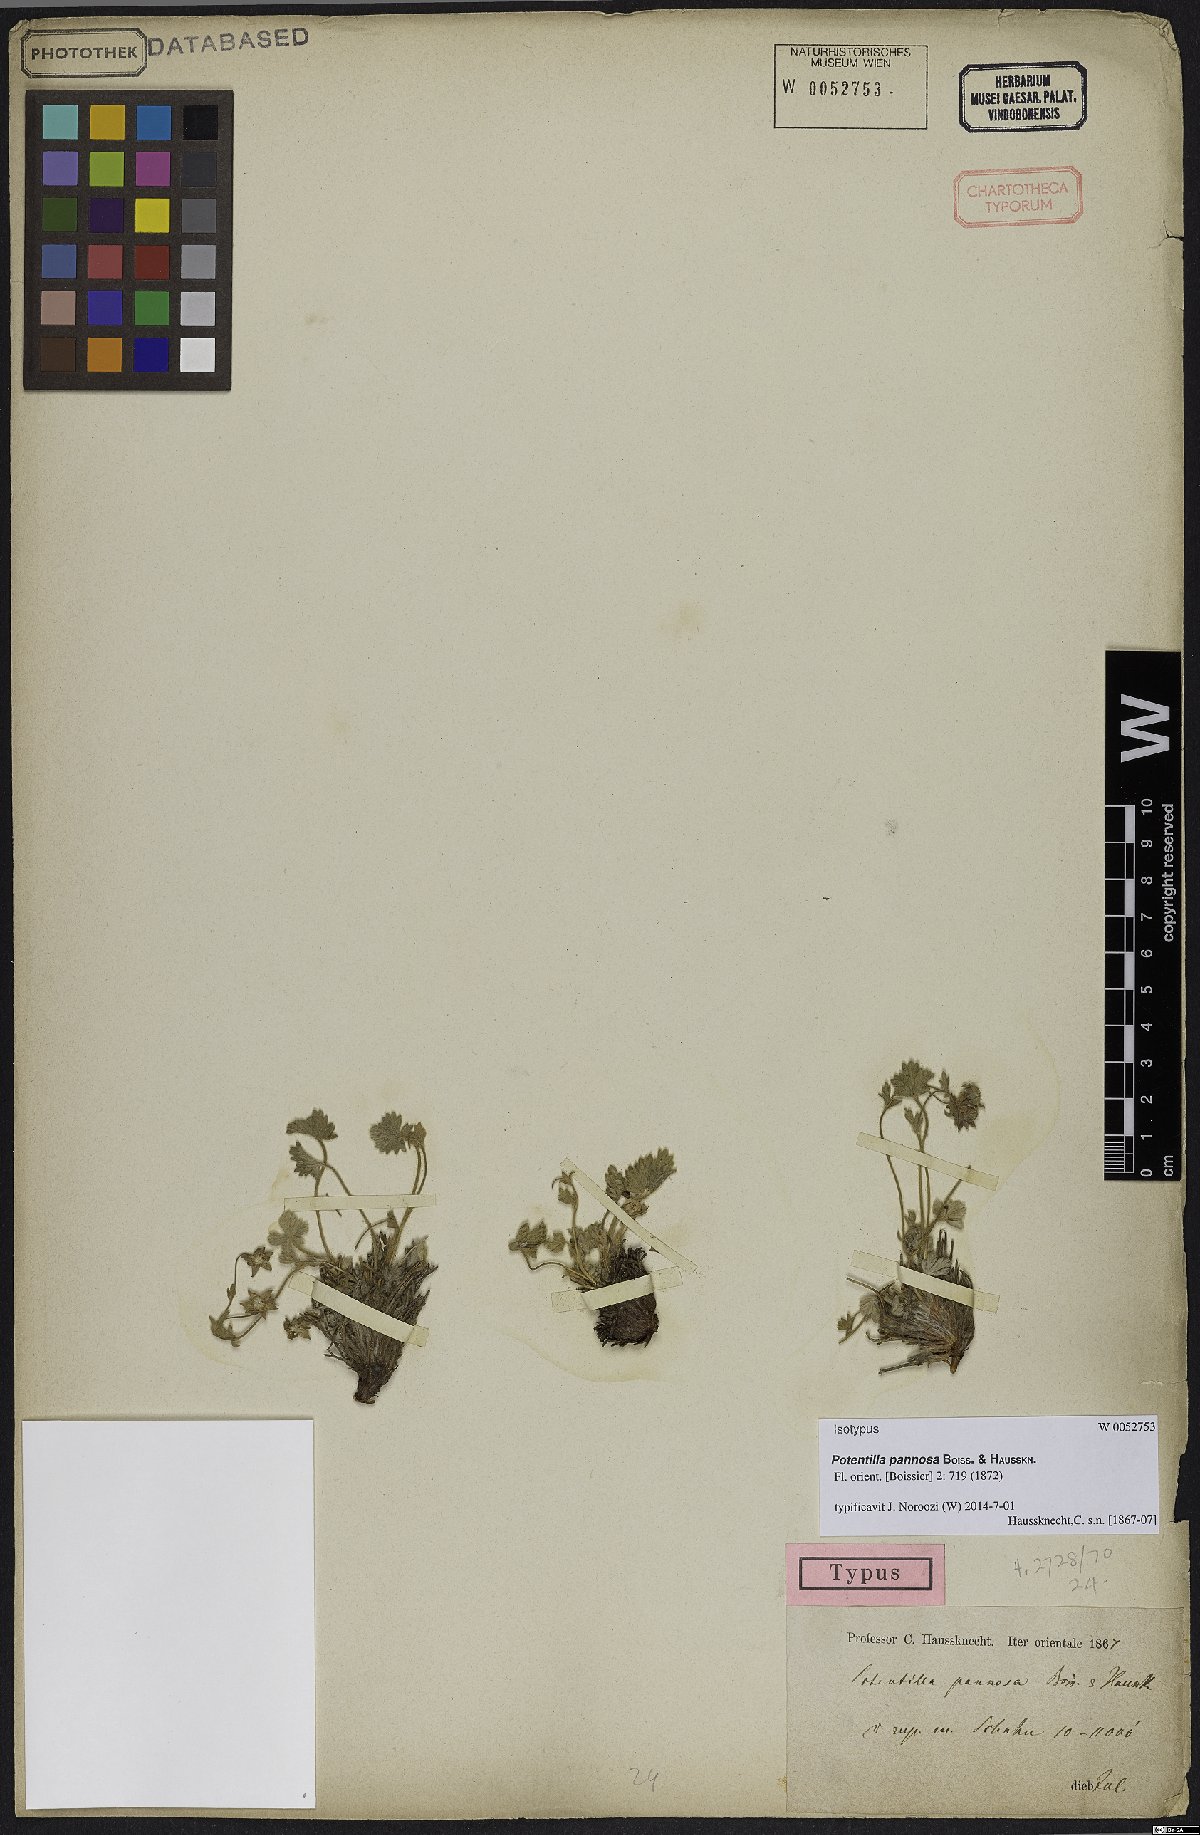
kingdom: Plantae
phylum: Tracheophyta
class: Magnoliopsida
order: Rosales
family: Rosaceae
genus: Potentilla
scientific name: Potentilla pannosa
